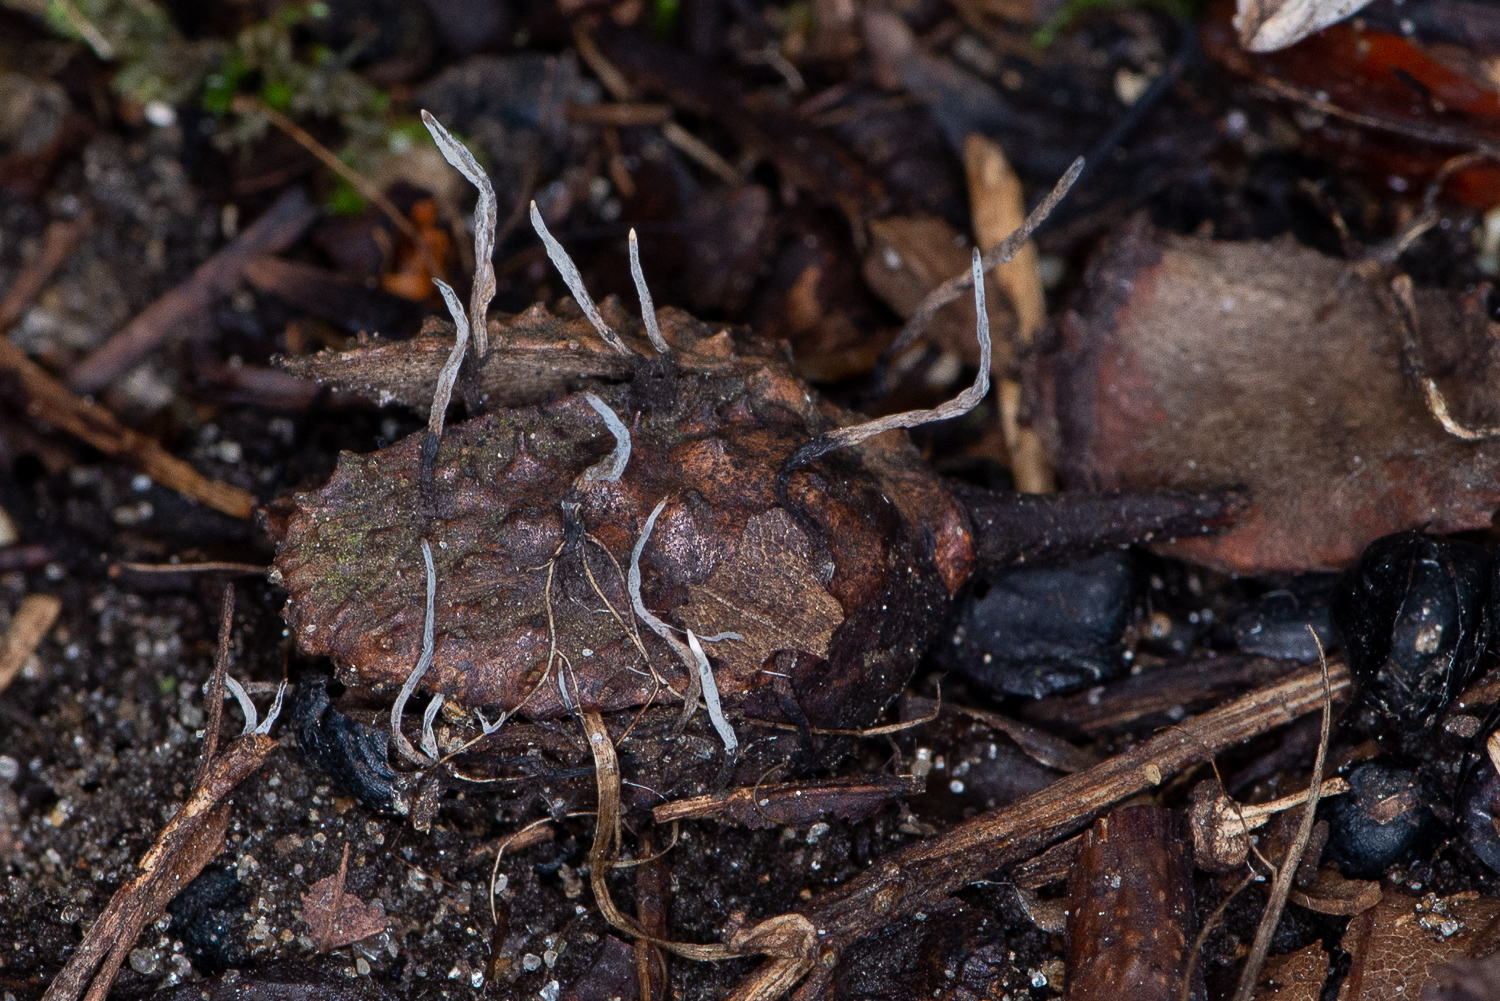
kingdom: Fungi
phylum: Ascomycota
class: Sordariomycetes
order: Xylariales
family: Xylariaceae
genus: Xylaria
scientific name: Xylaria carpophila
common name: bogskål-stødsvamp
